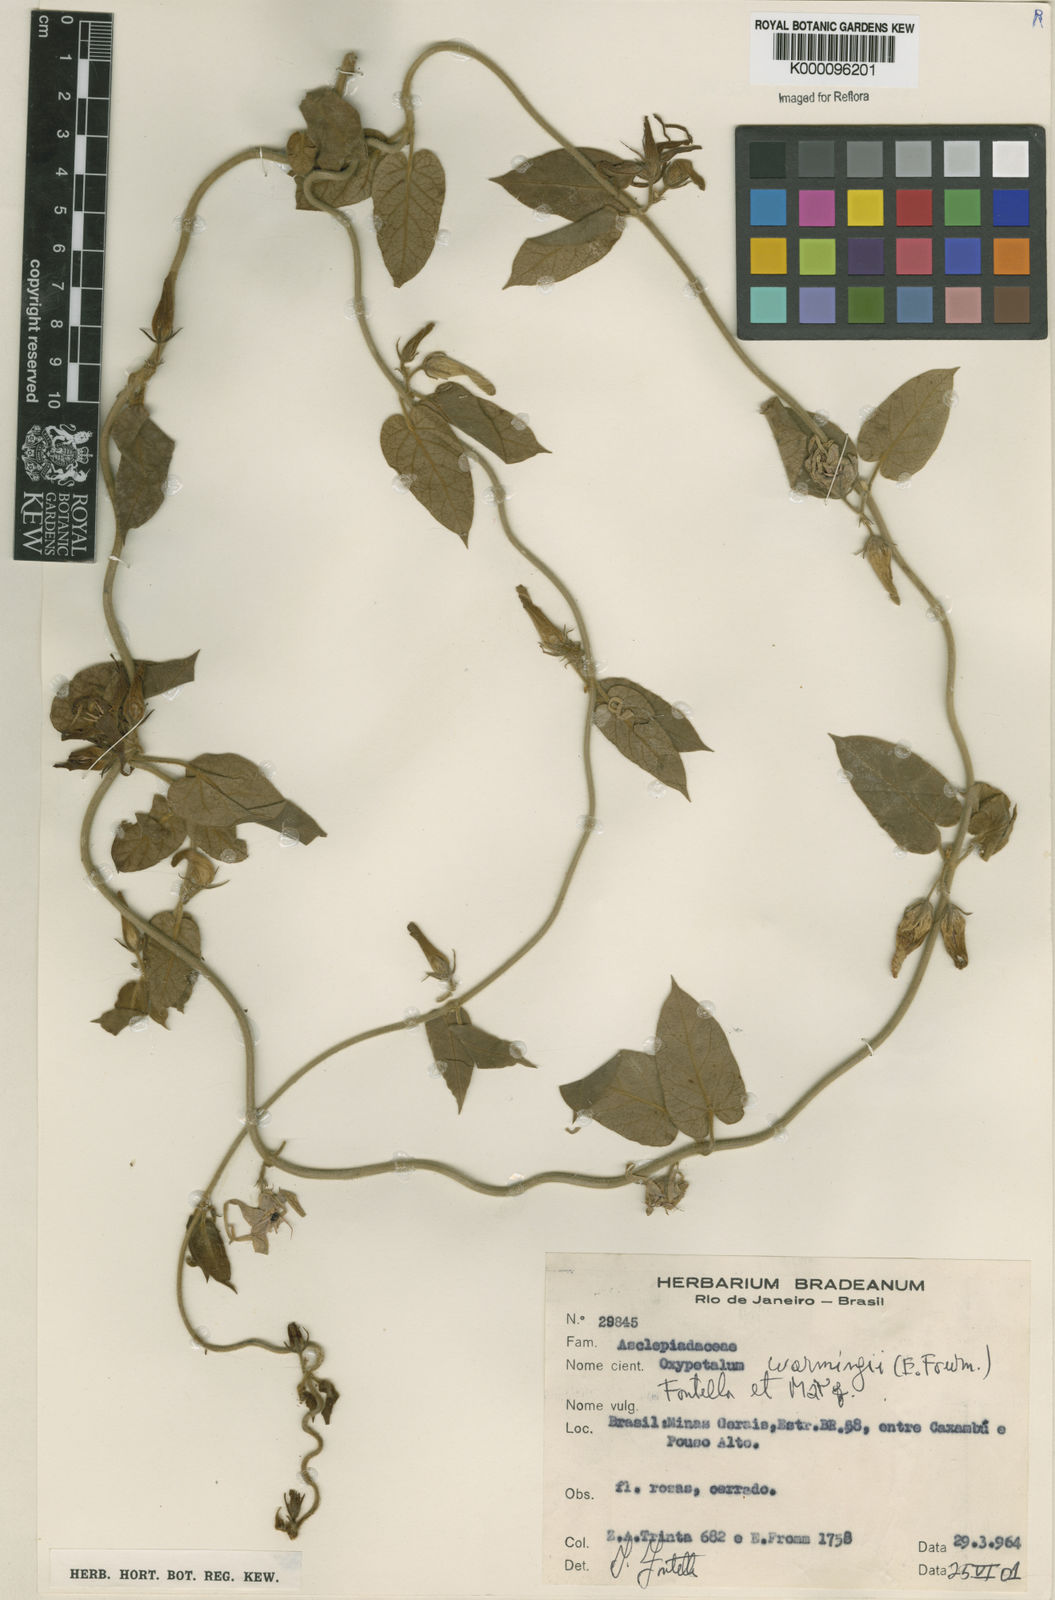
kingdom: Plantae
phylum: Tracheophyta
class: Magnoliopsida
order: Gentianales
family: Apocynaceae
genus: Oxypetalum
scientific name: Oxypetalum warmingii
